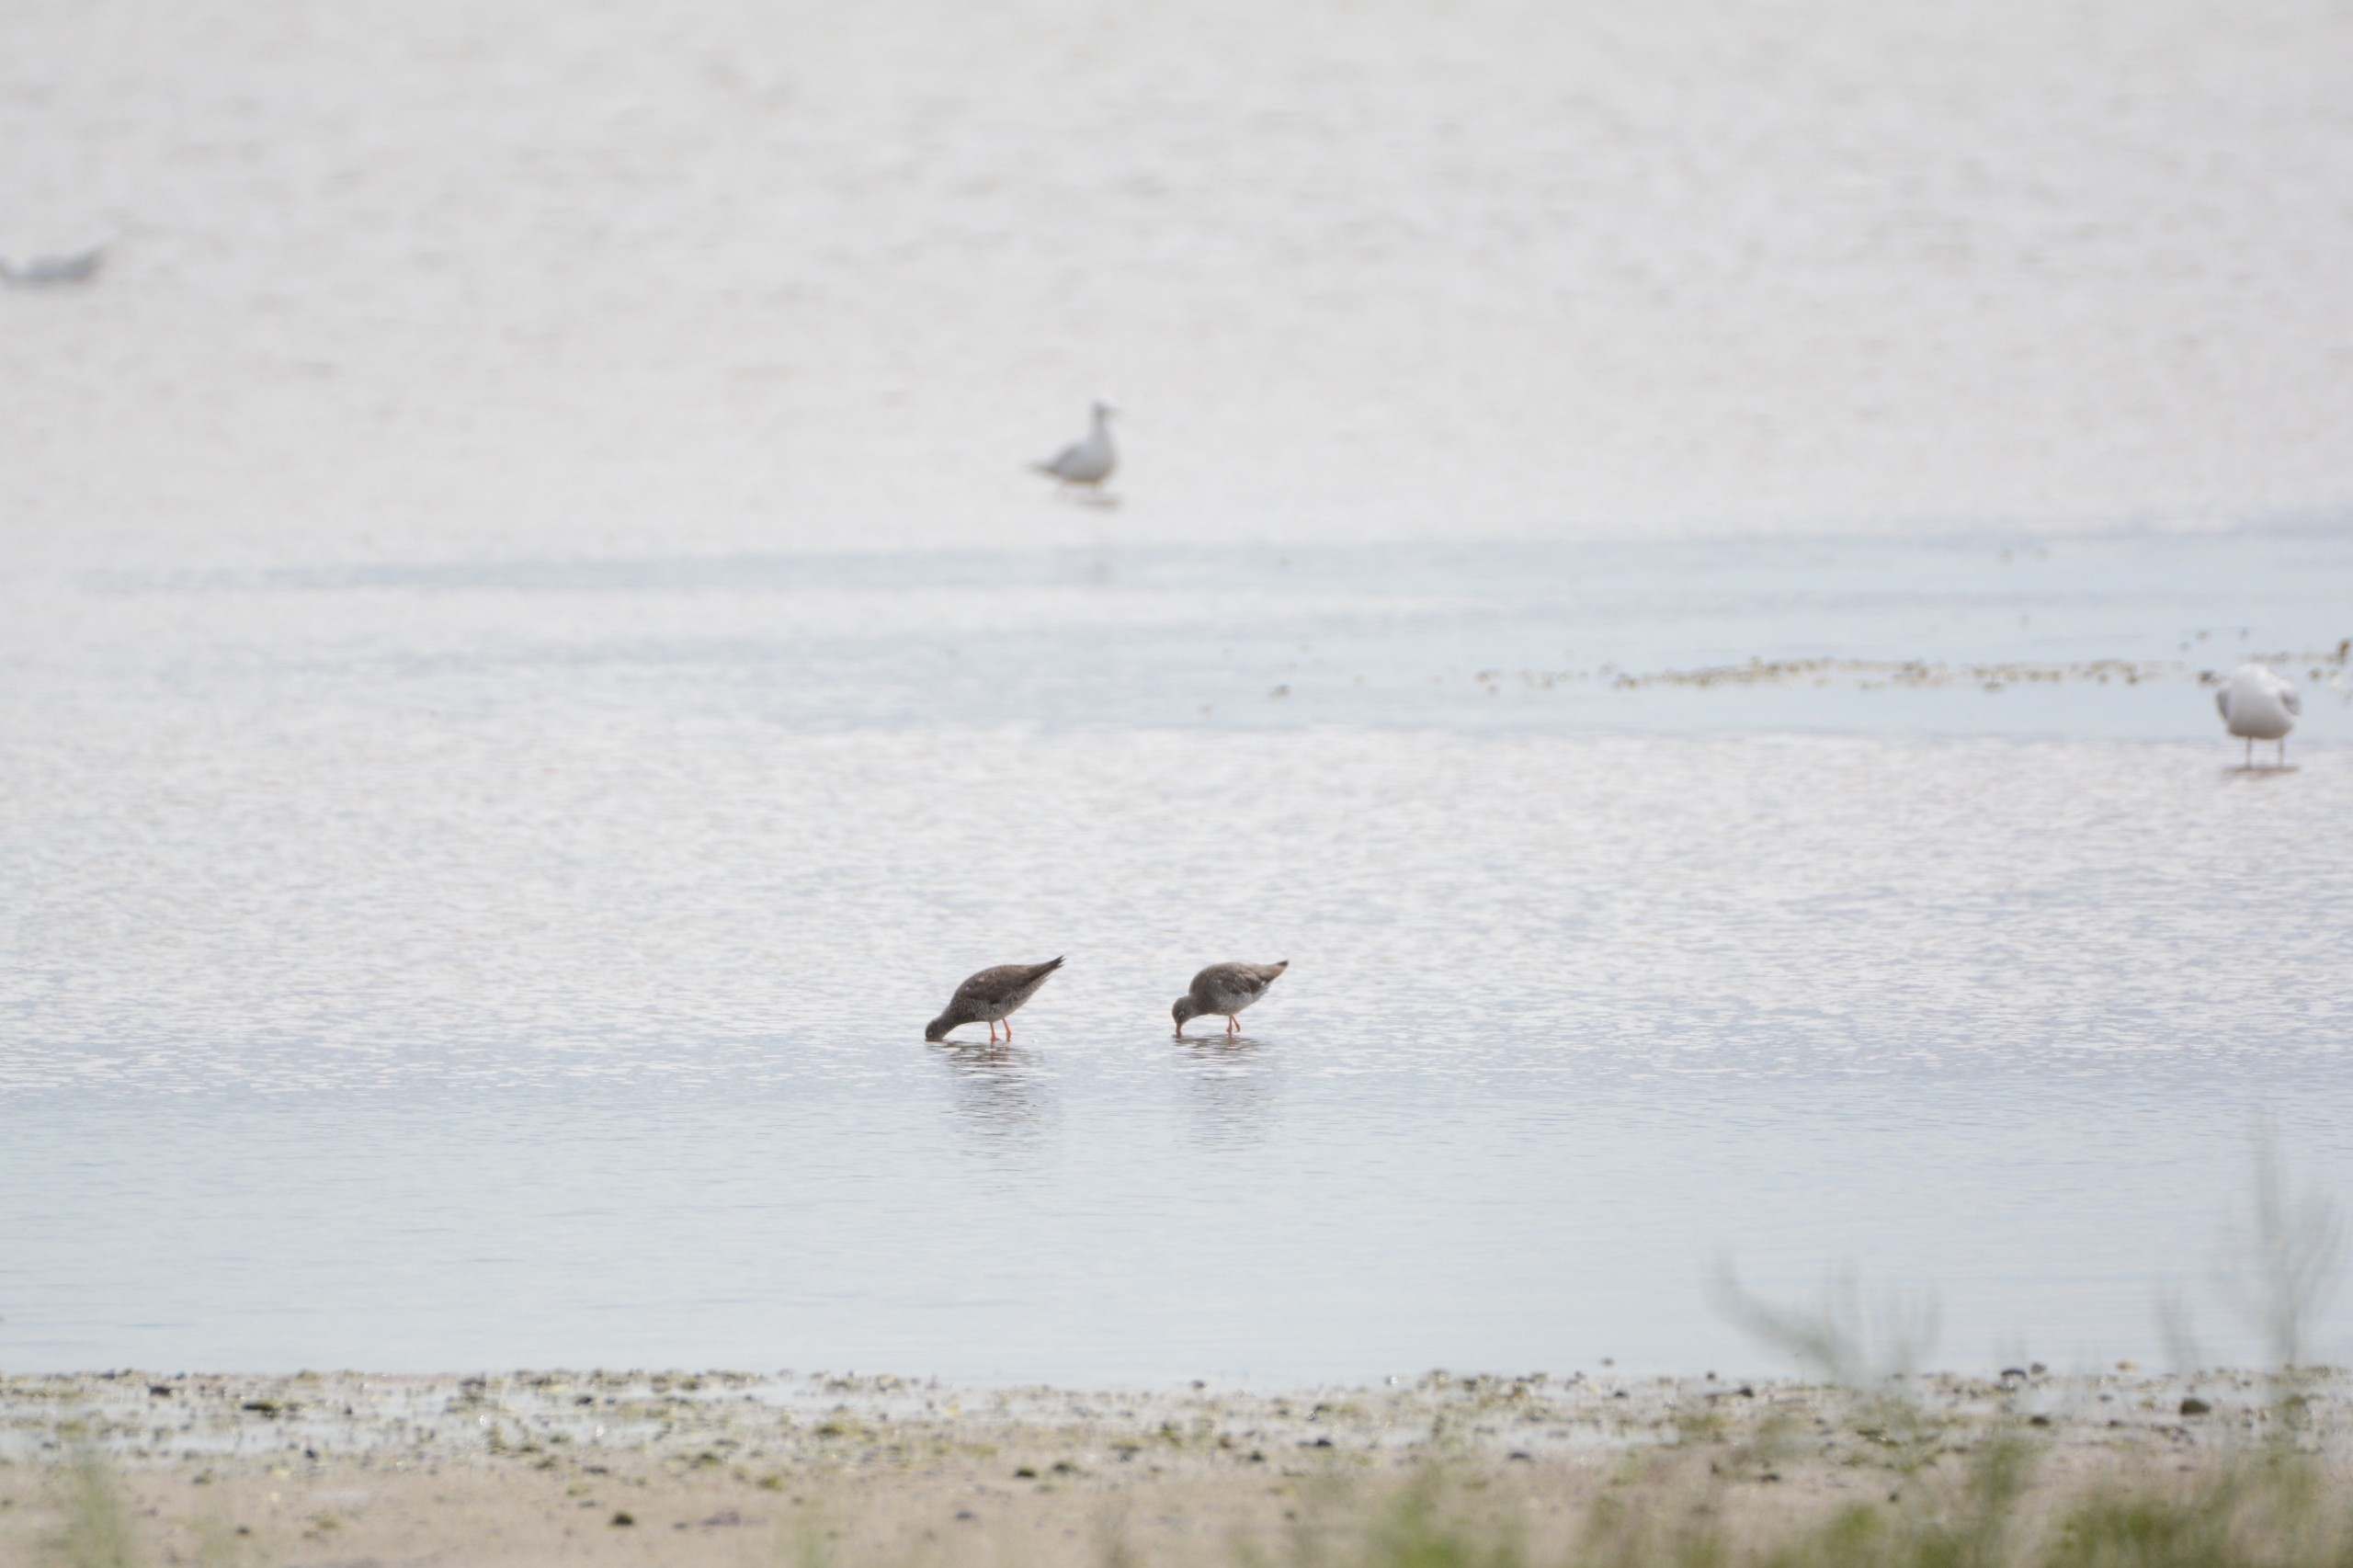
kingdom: Animalia
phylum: Chordata
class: Aves
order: Charadriiformes
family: Scolopacidae
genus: Tringa
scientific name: Tringa totanus
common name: Rødben
